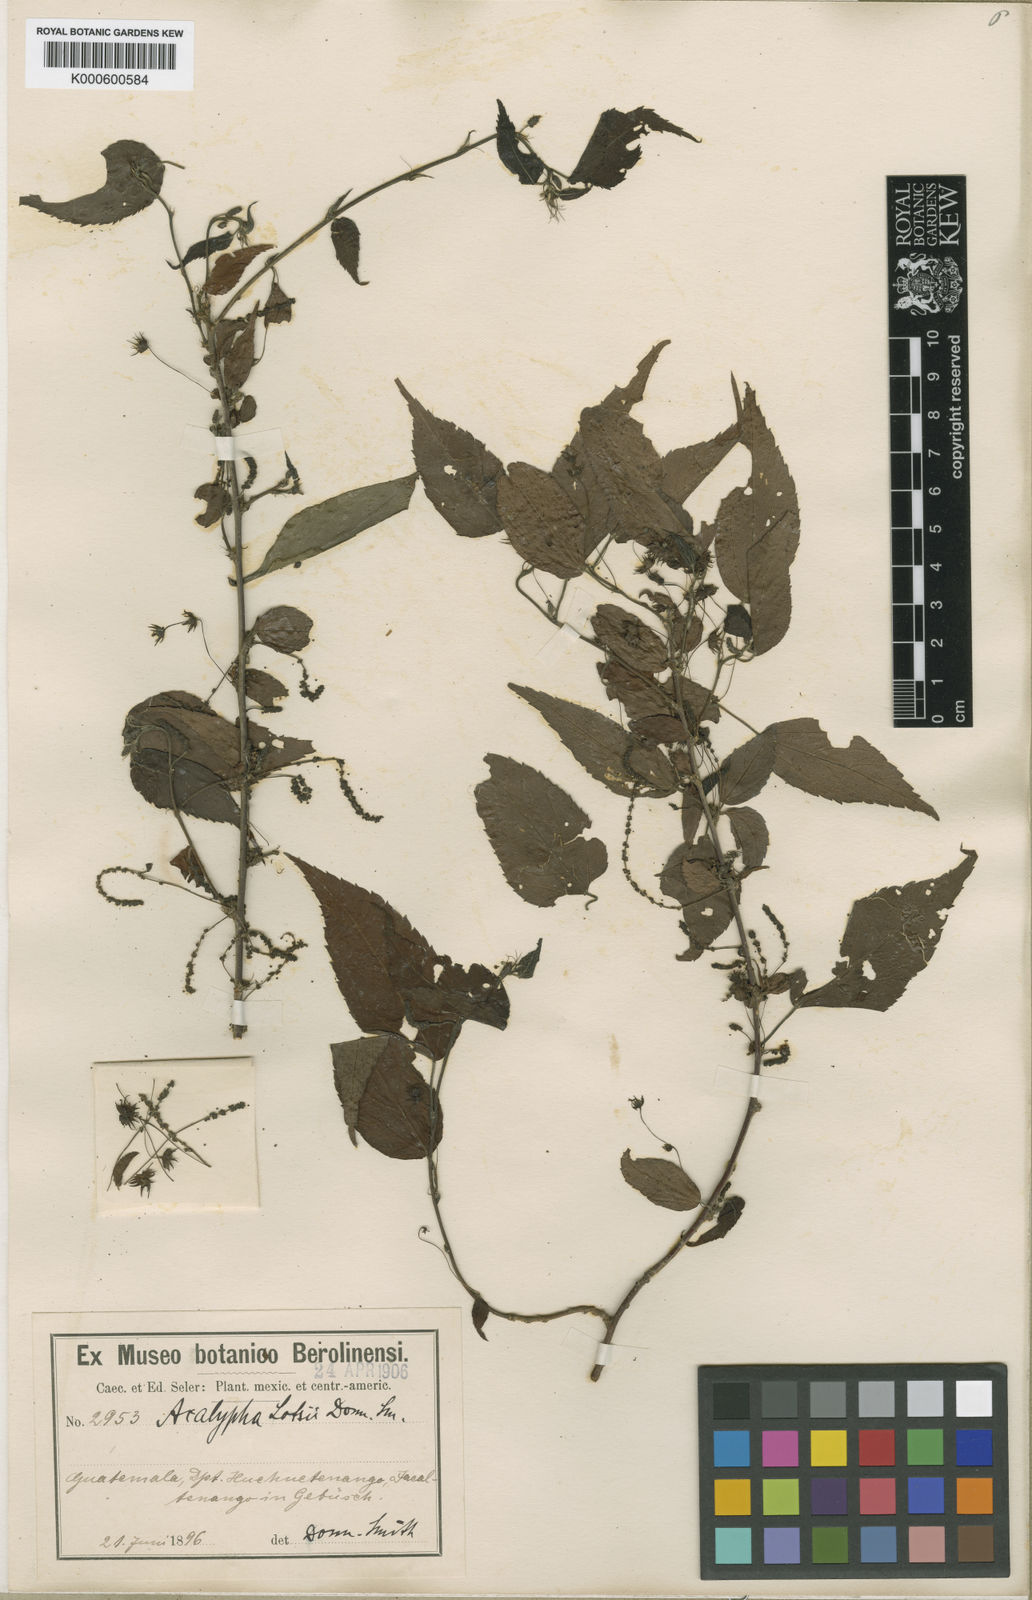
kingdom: Plantae
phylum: Tracheophyta
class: Magnoliopsida
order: Malpighiales
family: Euphorbiaceae
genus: Acalypha
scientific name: Acalypha
